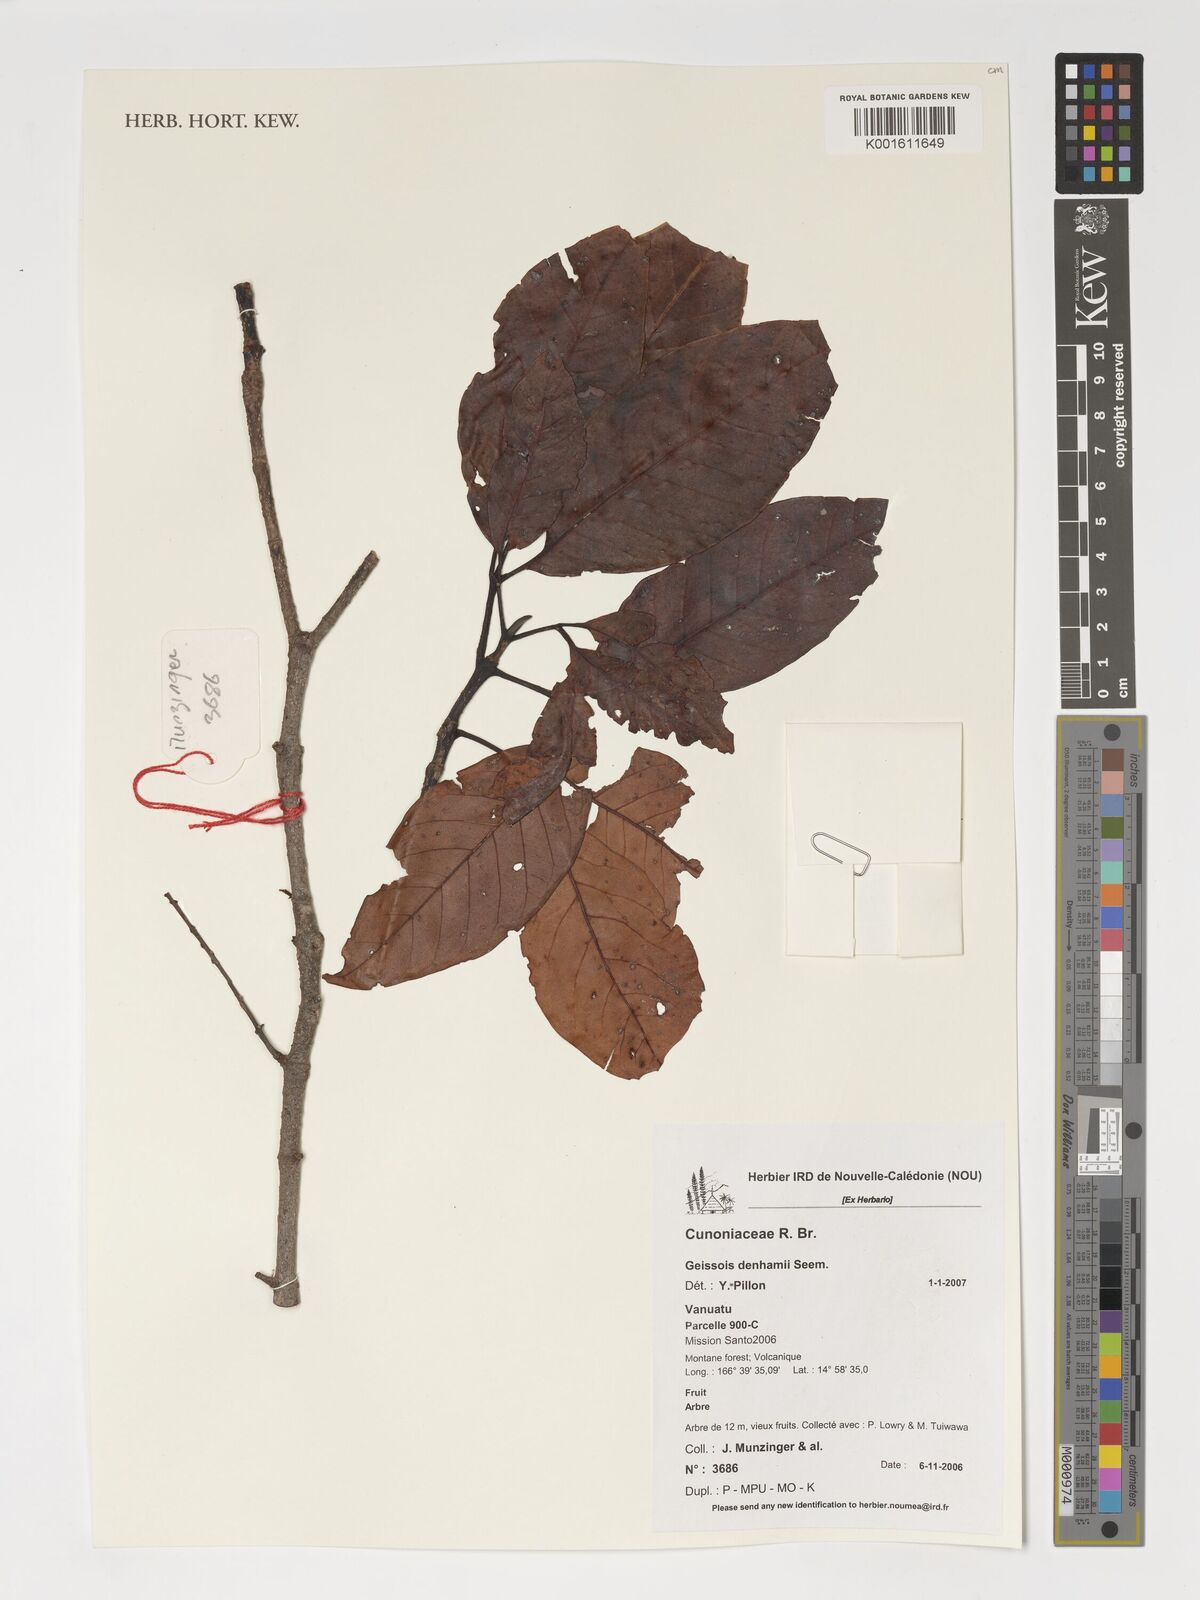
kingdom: Plantae
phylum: Tracheophyta
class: Magnoliopsida
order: Oxalidales
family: Cunoniaceae
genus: Geissois
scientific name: Geissois denhamii
